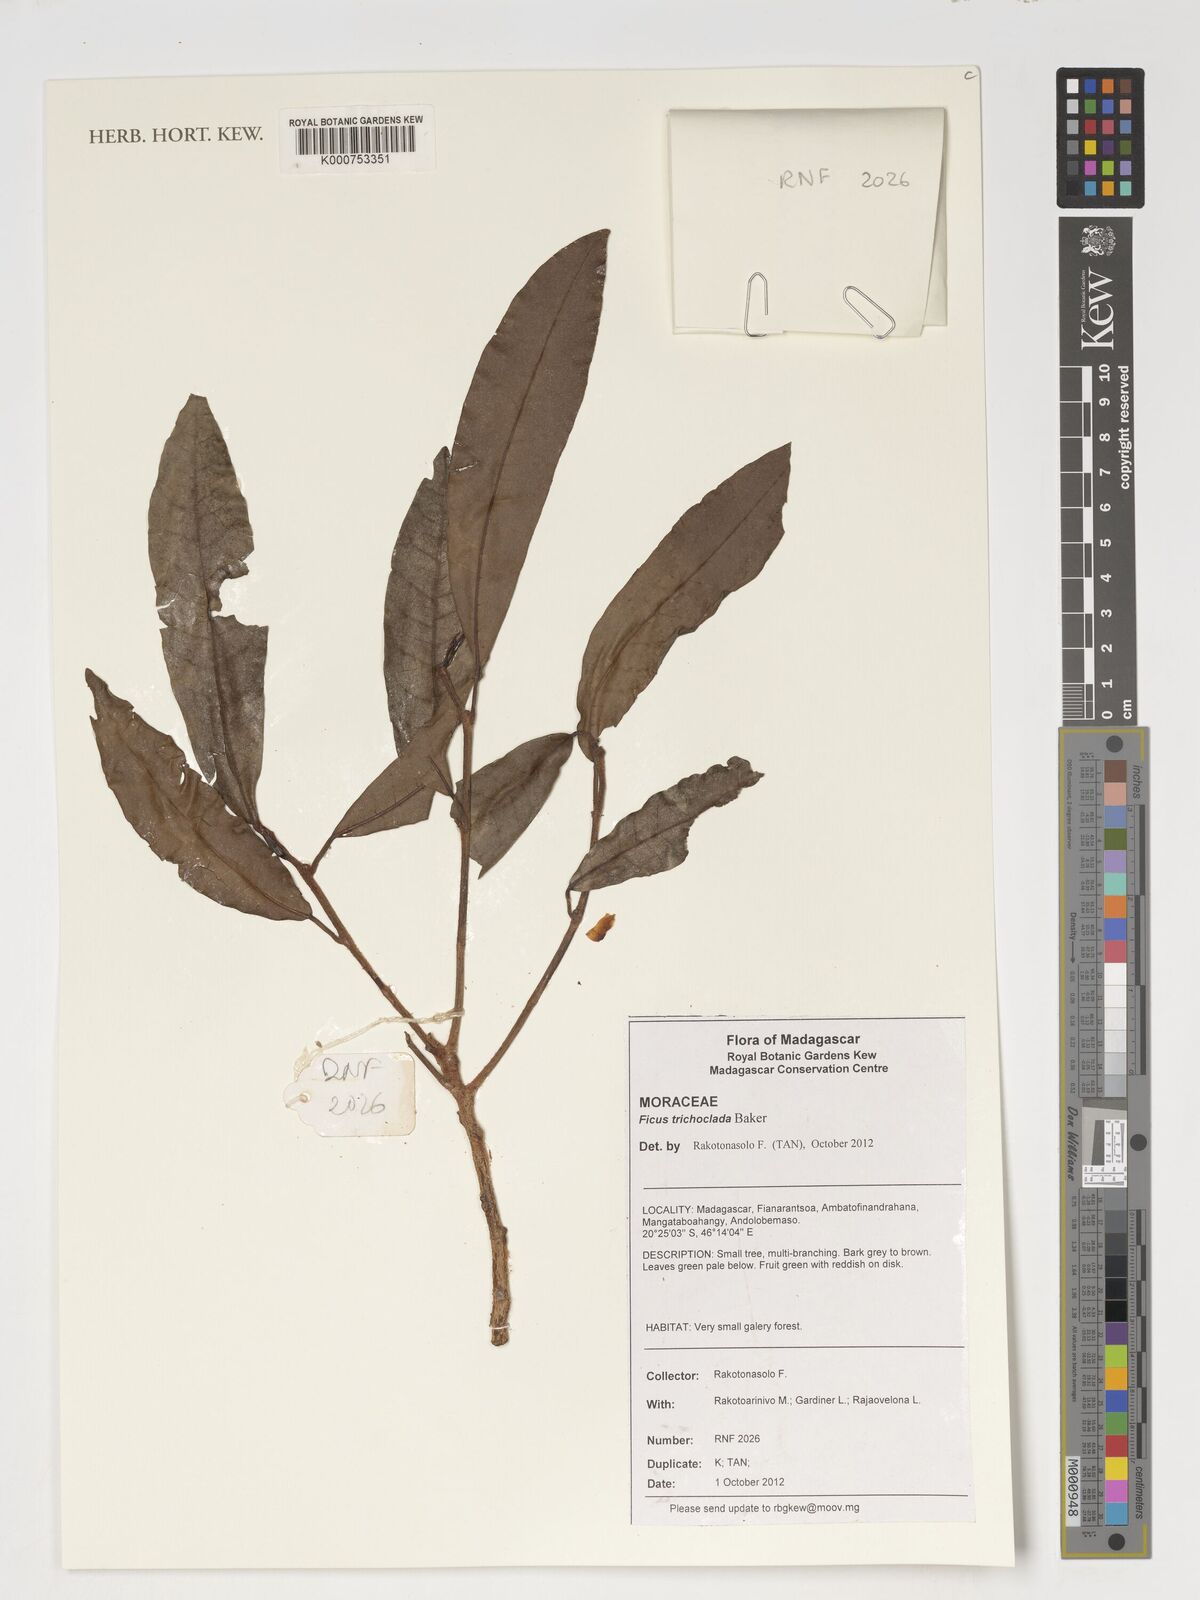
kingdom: Plantae
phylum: Tracheophyta
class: Magnoliopsida
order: Rosales
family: Moraceae
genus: Ficus
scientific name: Ficus polyphlebia
